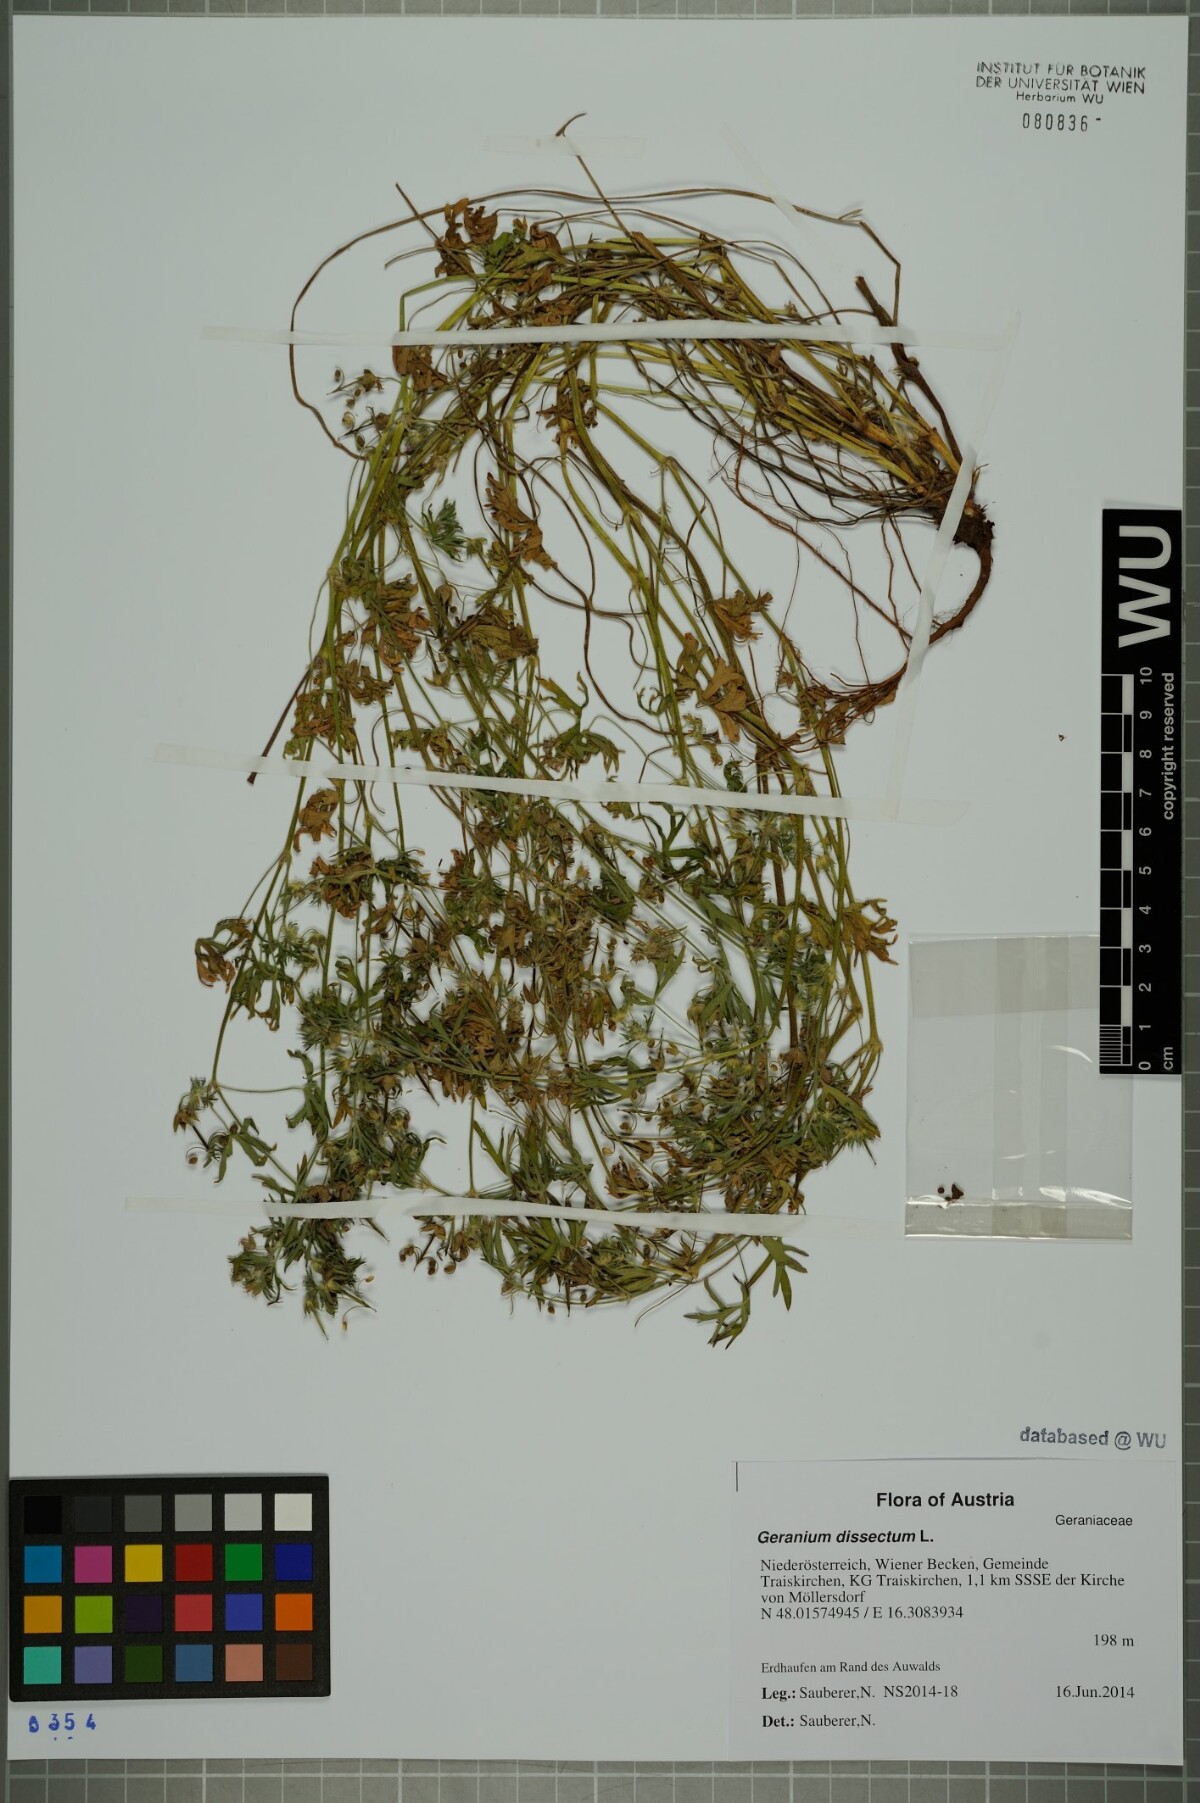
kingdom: Plantae
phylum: Tracheophyta
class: Magnoliopsida
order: Geraniales
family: Geraniaceae
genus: Geranium
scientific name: Geranium dissectum
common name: Cut-leaved crane's-bill
